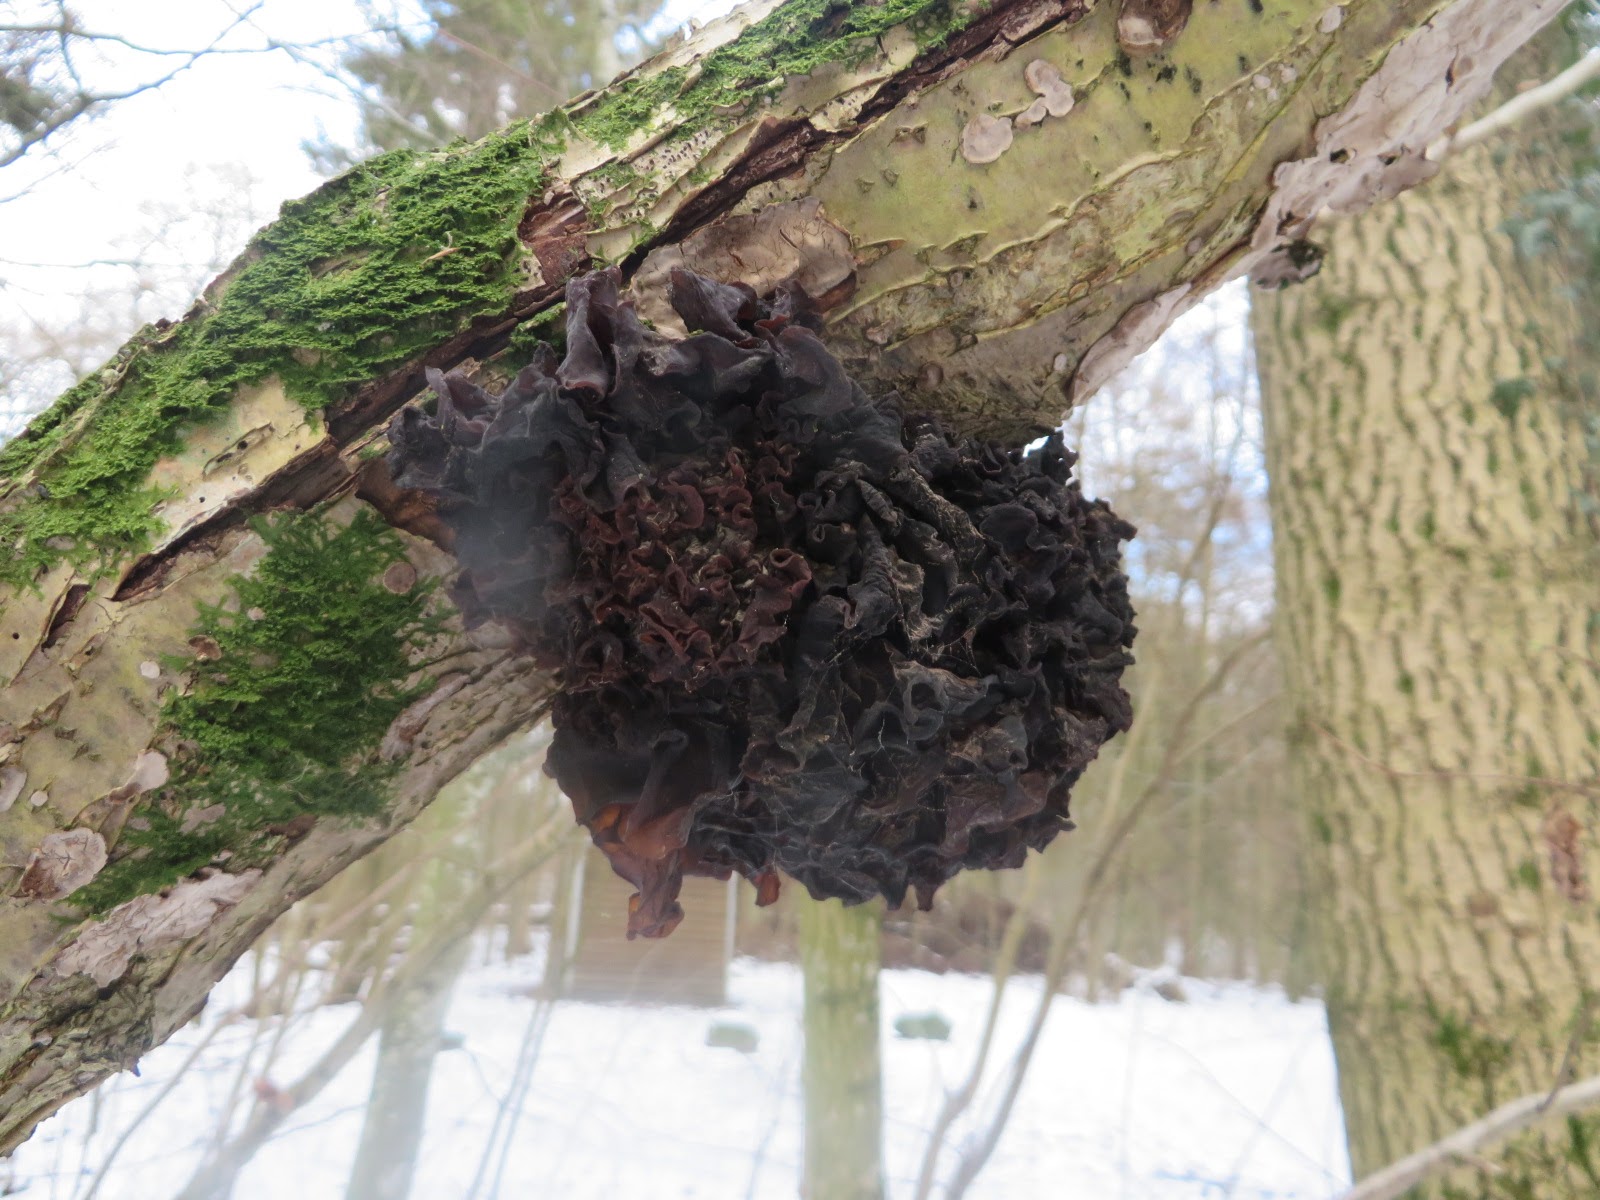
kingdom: Fungi
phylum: Basidiomycota
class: Tremellomycetes
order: Tremellales
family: Tremellaceae
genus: Phaeotremella
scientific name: Phaeotremella frondosa
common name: kæmpe-bævresvamp
